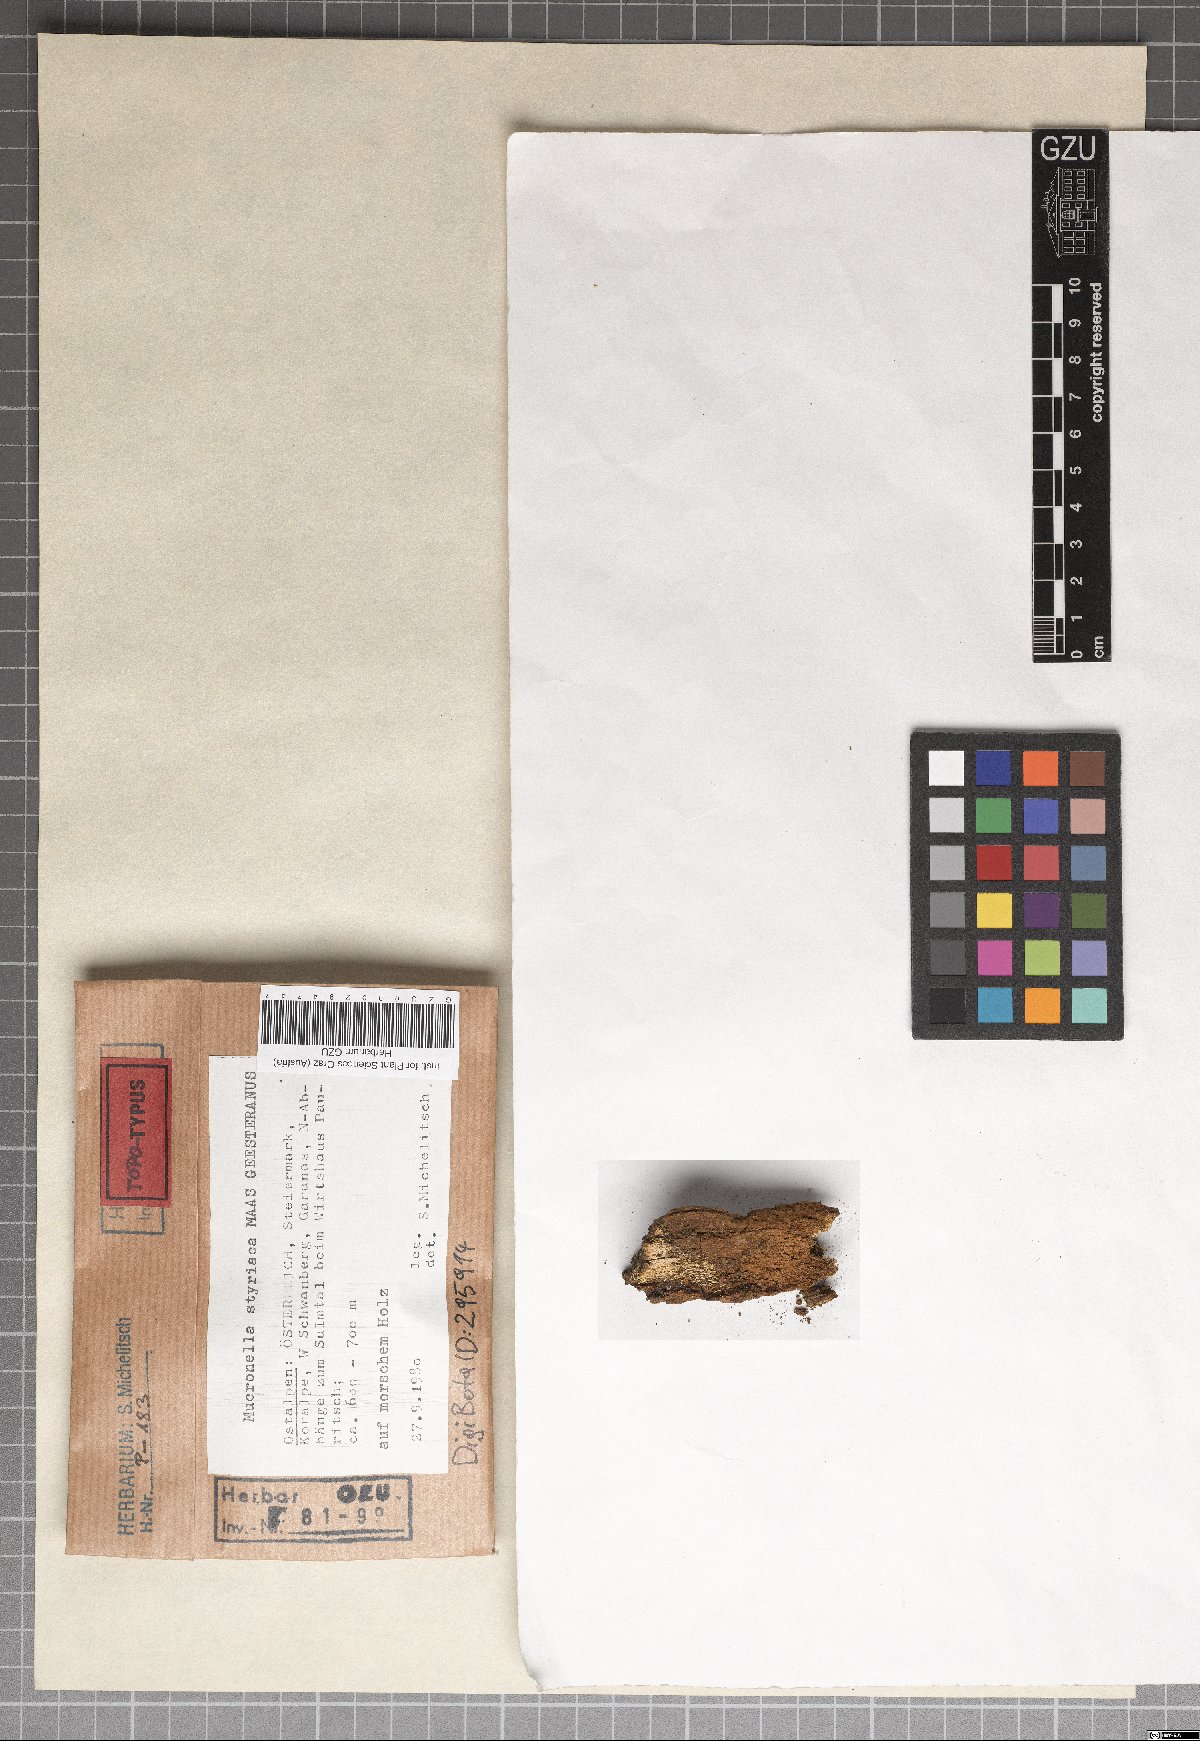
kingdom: Fungi
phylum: Basidiomycota
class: Agaricomycetes
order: Agaricales
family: Clavariaceae
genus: Mucronella
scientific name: Mucronella styriaca
